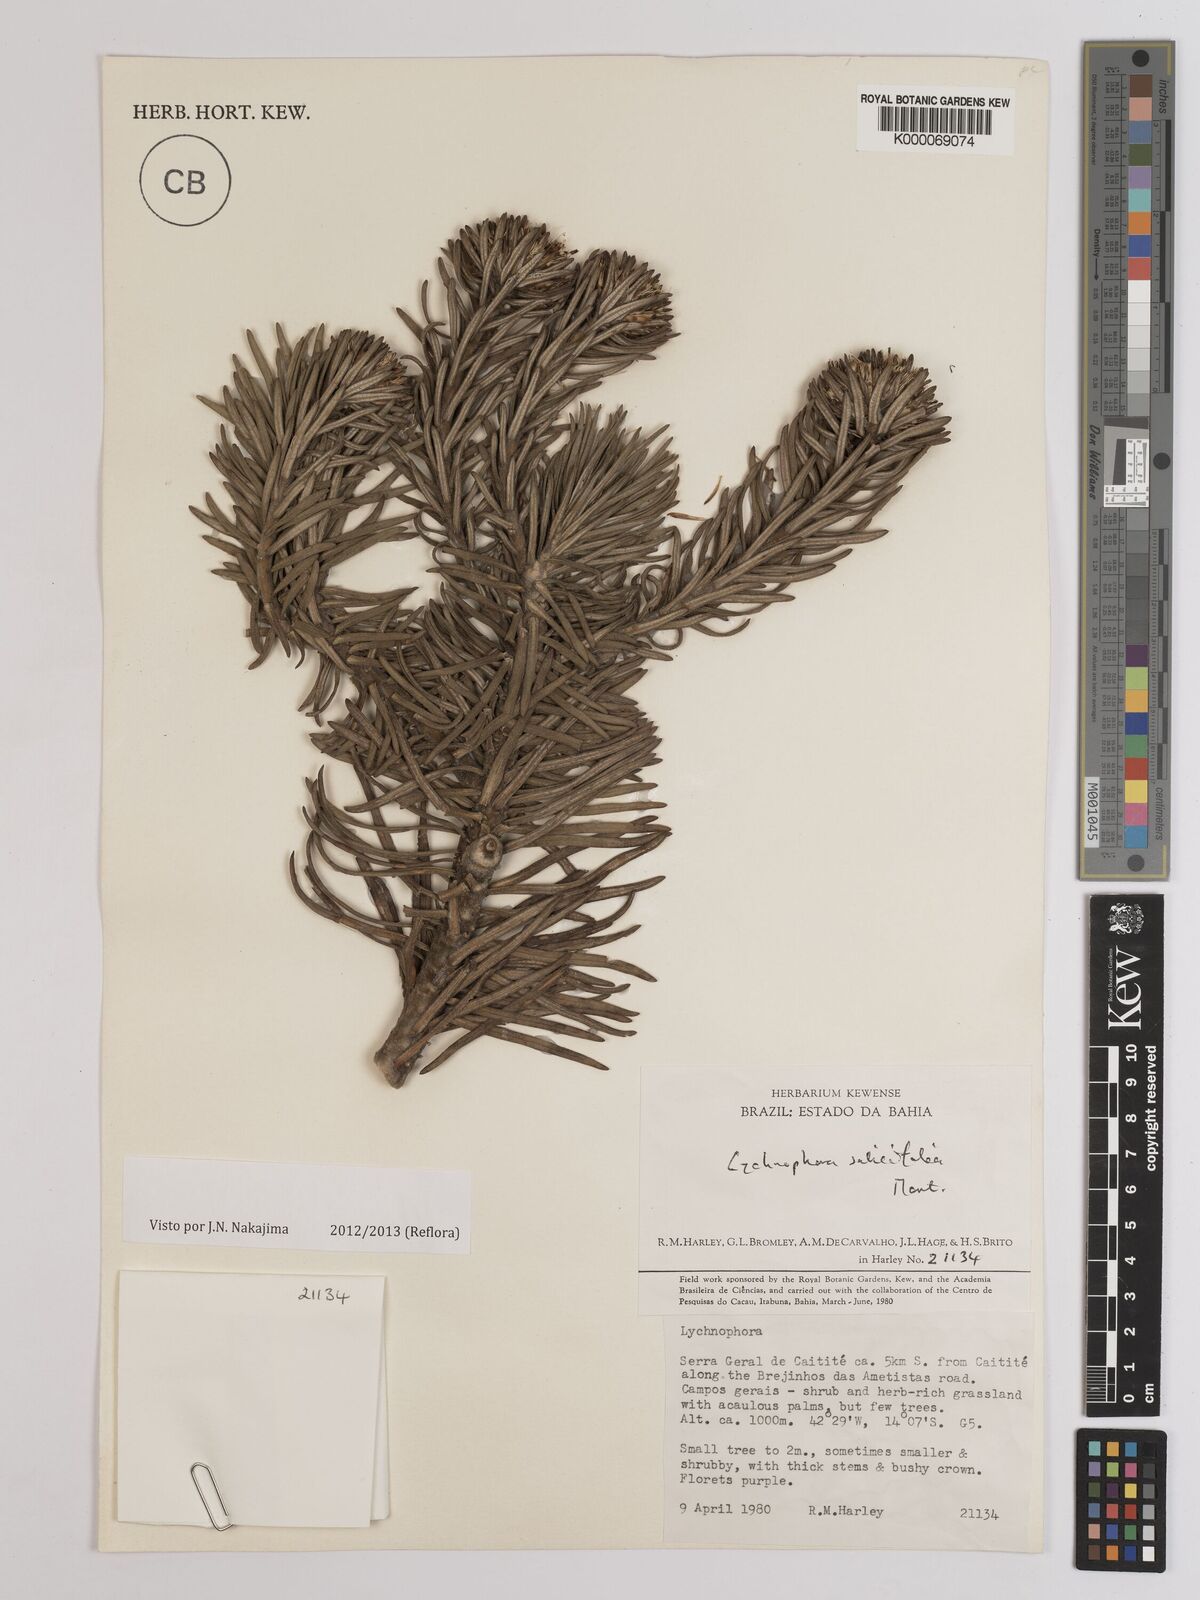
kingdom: Plantae
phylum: Tracheophyta
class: Magnoliopsida
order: Asterales
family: Asteraceae
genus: Lychnophora
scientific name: Lychnophora salicifolia
